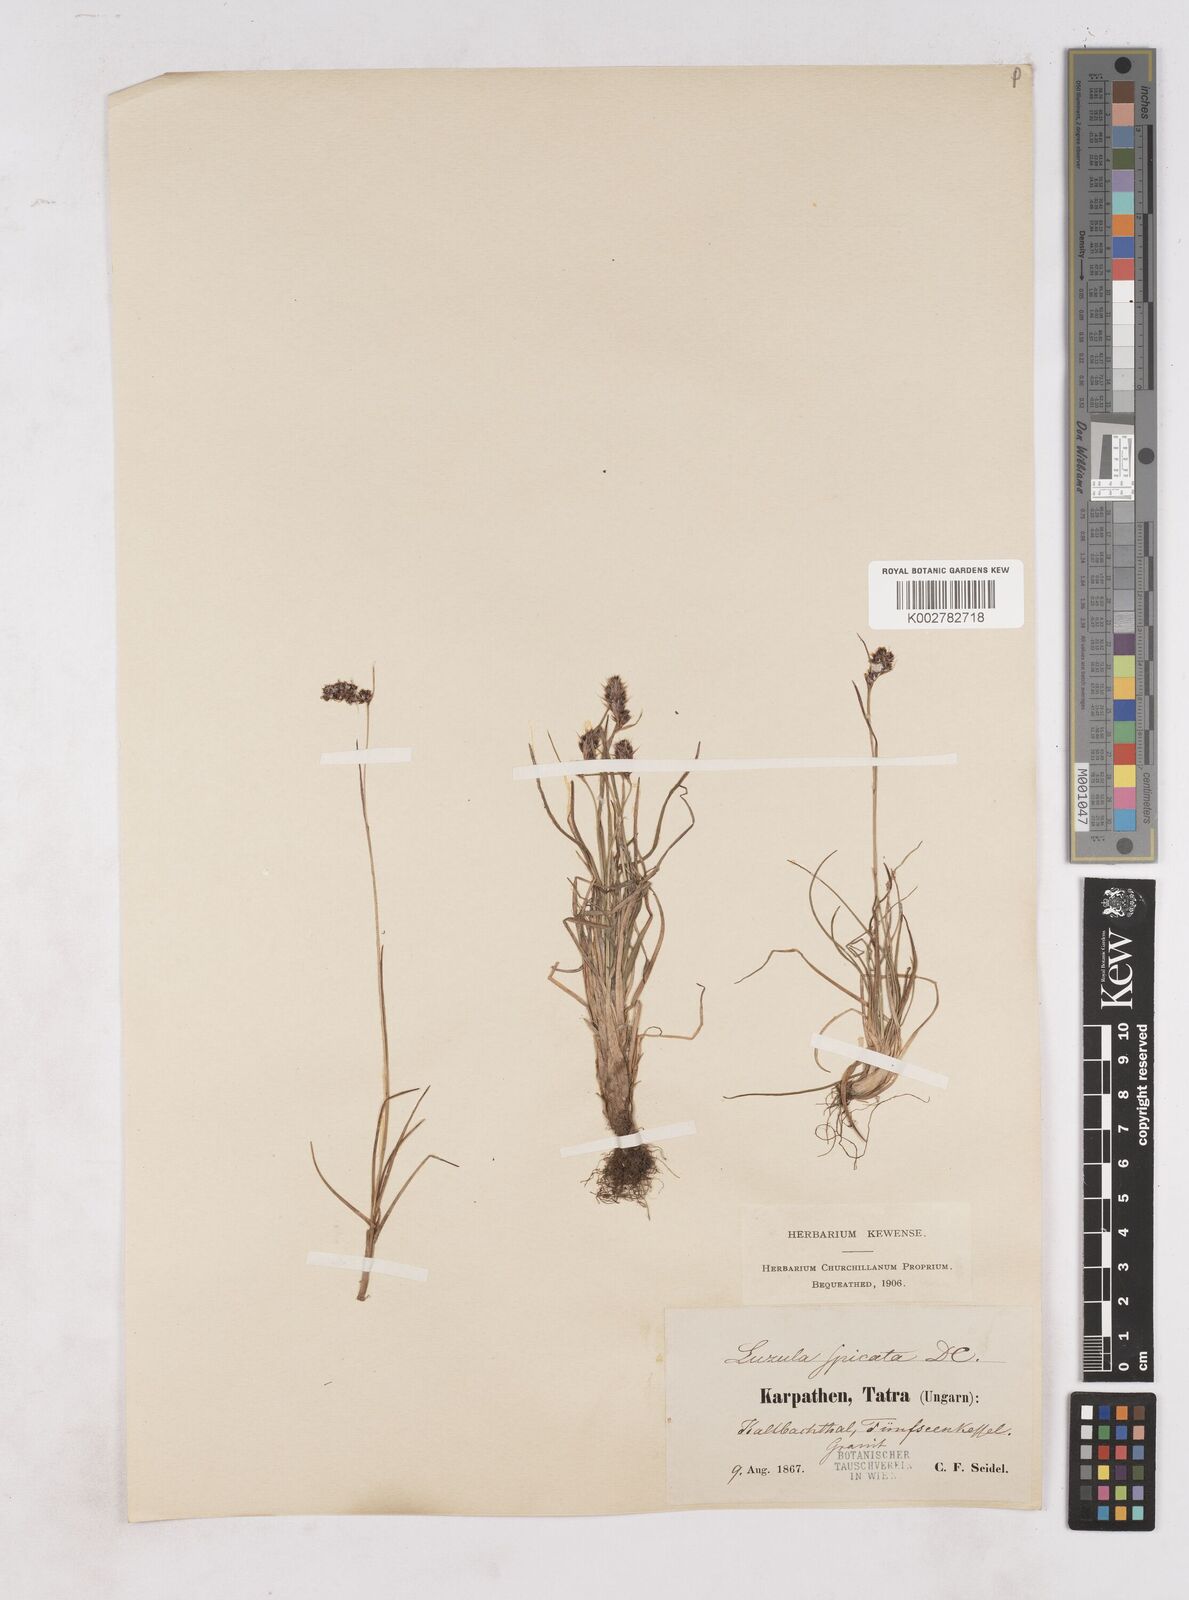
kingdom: Plantae
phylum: Tracheophyta
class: Liliopsida
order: Poales
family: Juncaceae
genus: Luzula
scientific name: Luzula spicata
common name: Spiked wood-rush
